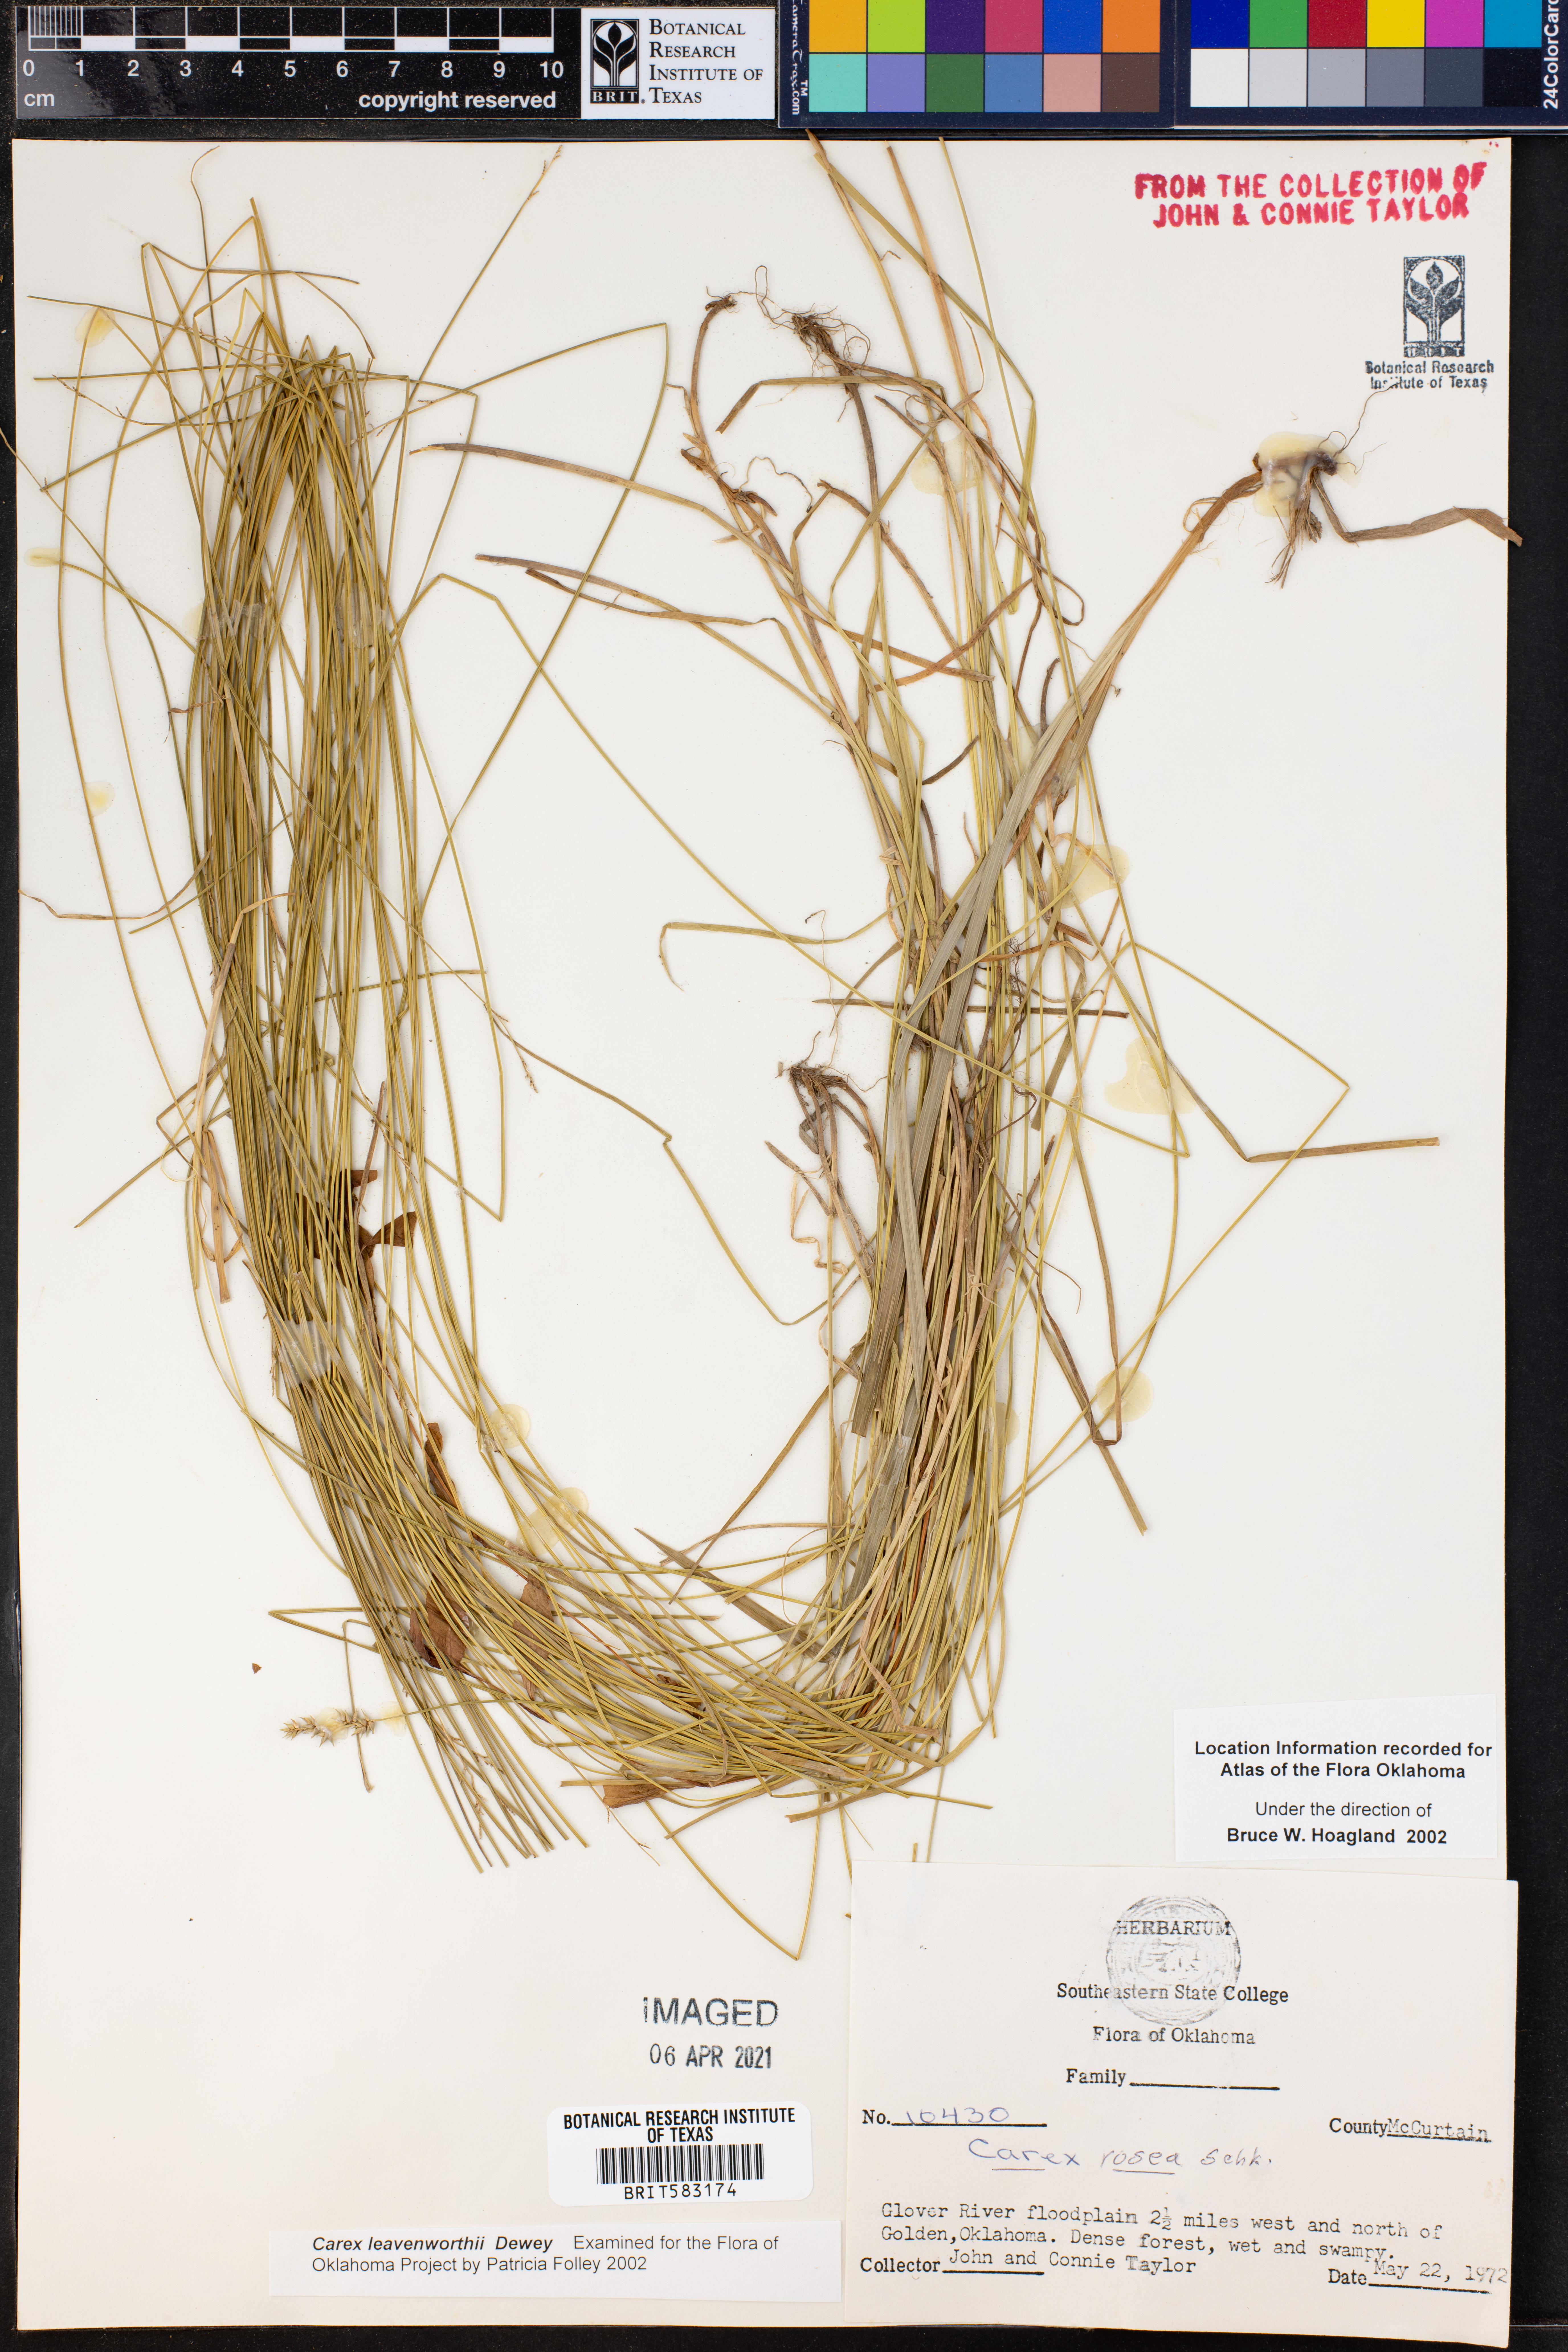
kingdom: Plantae
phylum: Tracheophyta
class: Liliopsida
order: Poales
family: Cyperaceae
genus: Carex
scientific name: Carex leavenworthii
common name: Leavenworth's bracted sedge
